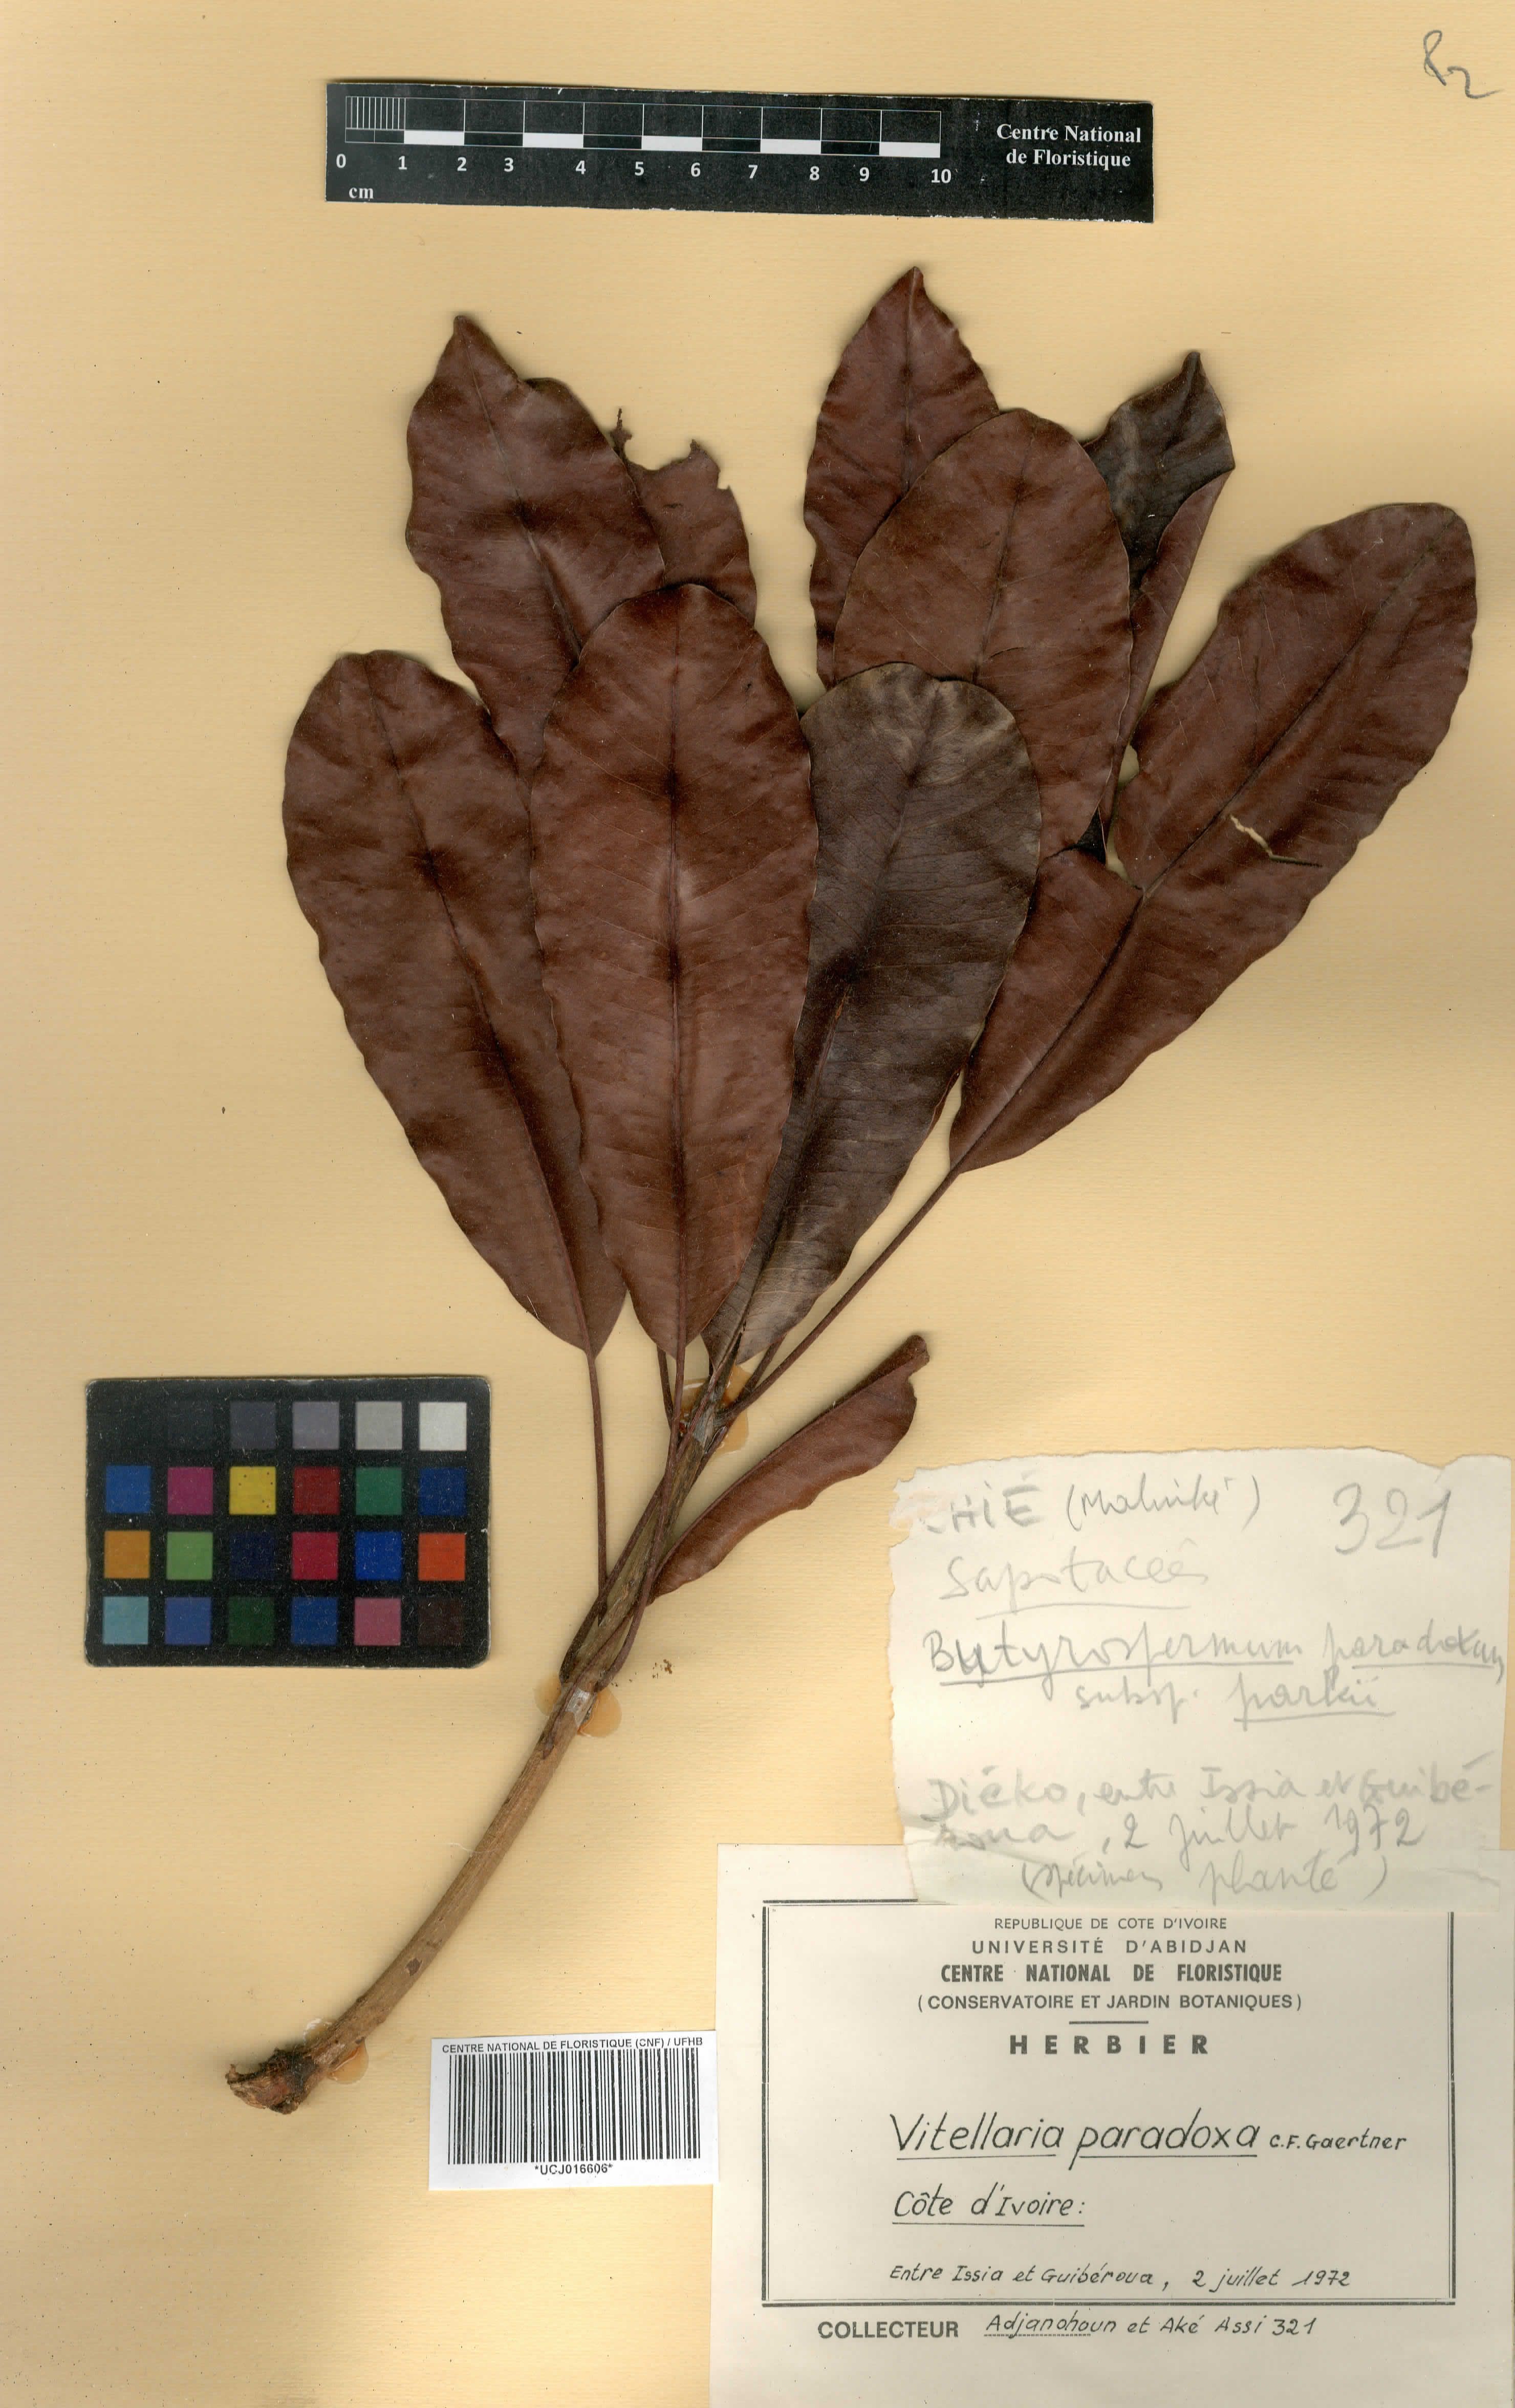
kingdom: Plantae
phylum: Tracheophyta
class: Magnoliopsida
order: Ericales
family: Sapotaceae
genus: Vitellaria
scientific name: Vitellaria paradoxa
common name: Shea butter tree
